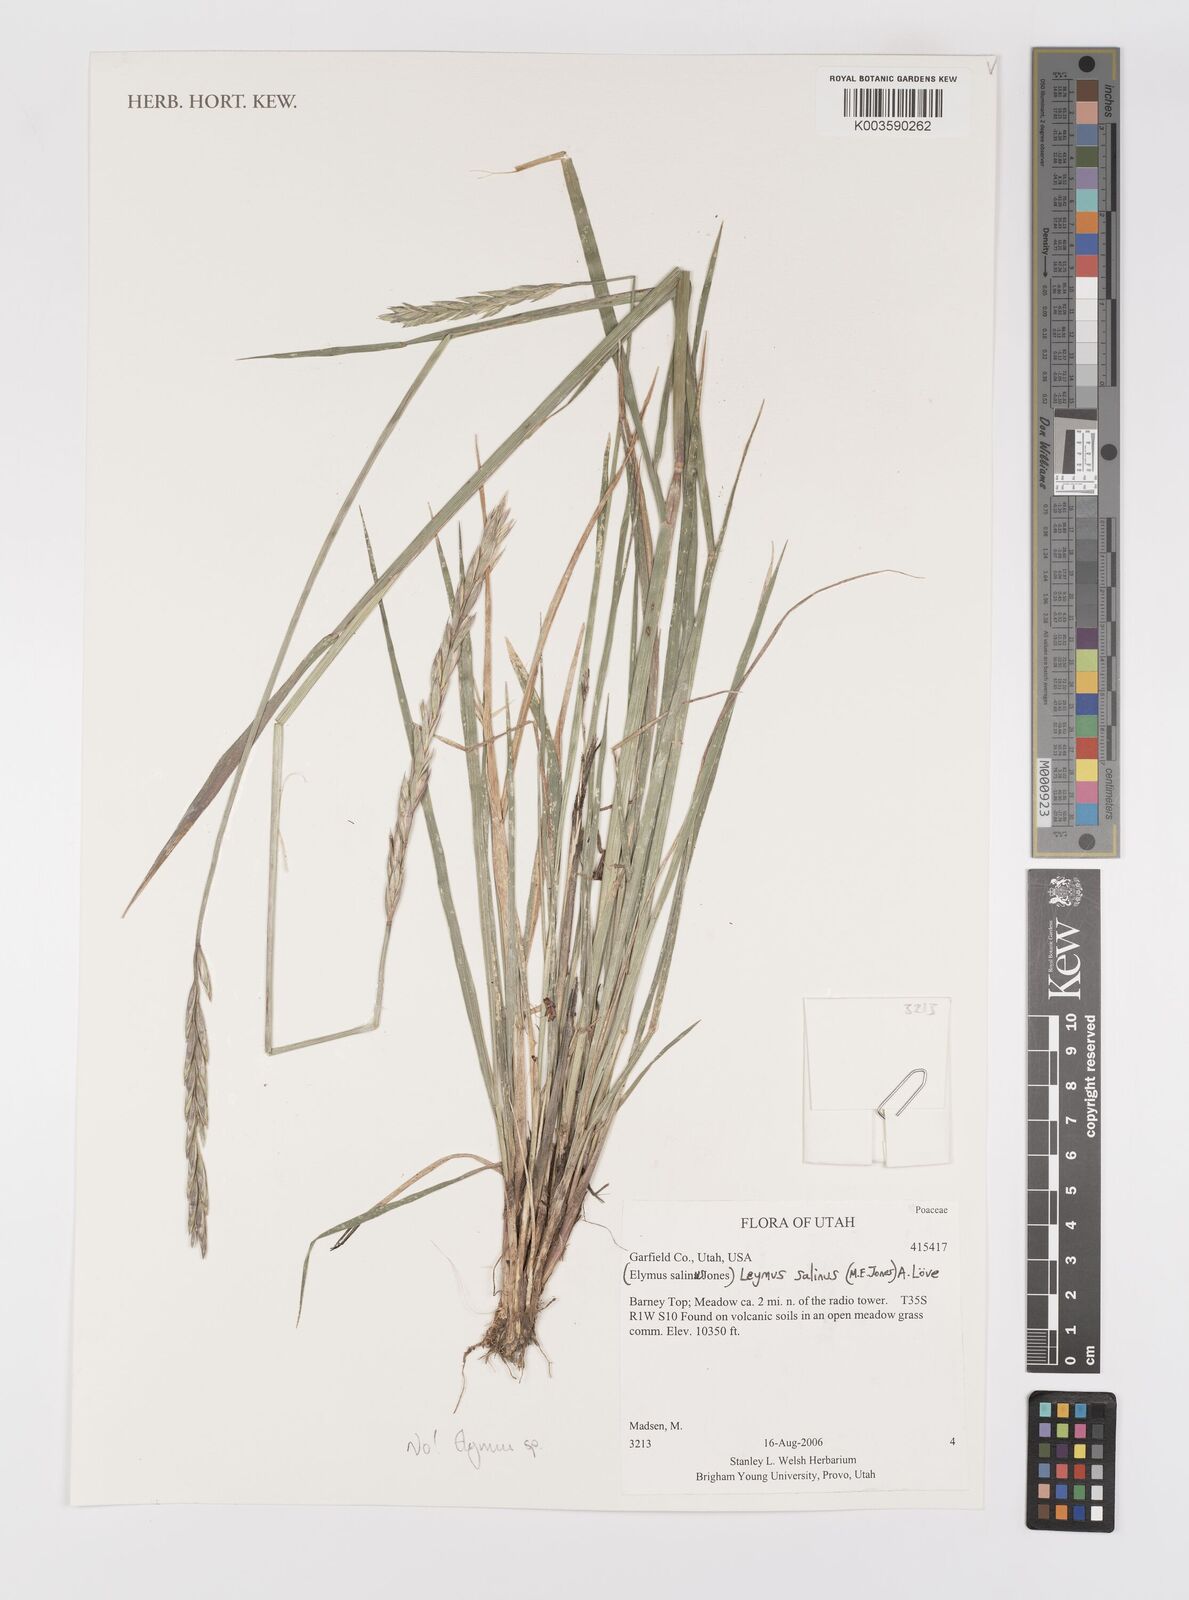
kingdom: Plantae
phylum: Tracheophyta
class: Liliopsida
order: Poales
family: Poaceae
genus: Elymus
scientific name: Elymus
